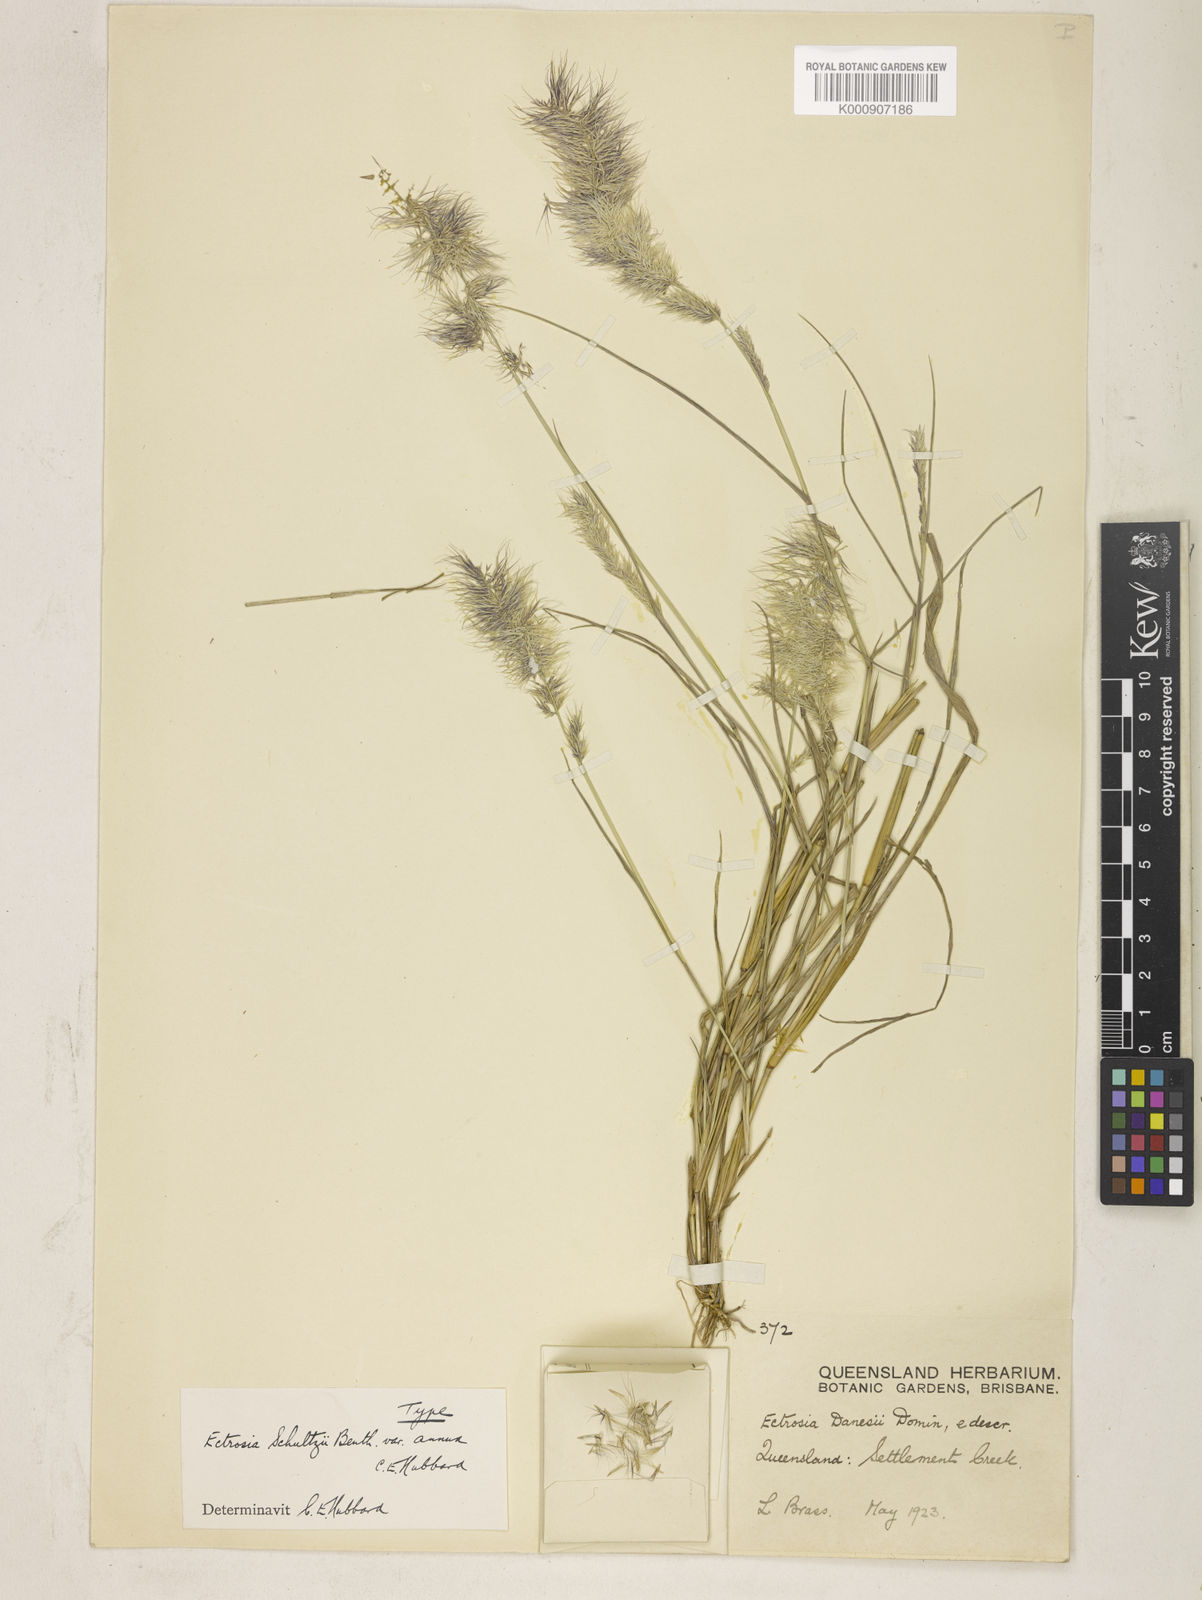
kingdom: Plantae
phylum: Tracheophyta
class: Liliopsida
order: Poales
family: Poaceae
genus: Eragrostis
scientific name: Eragrostis nightingaleae
